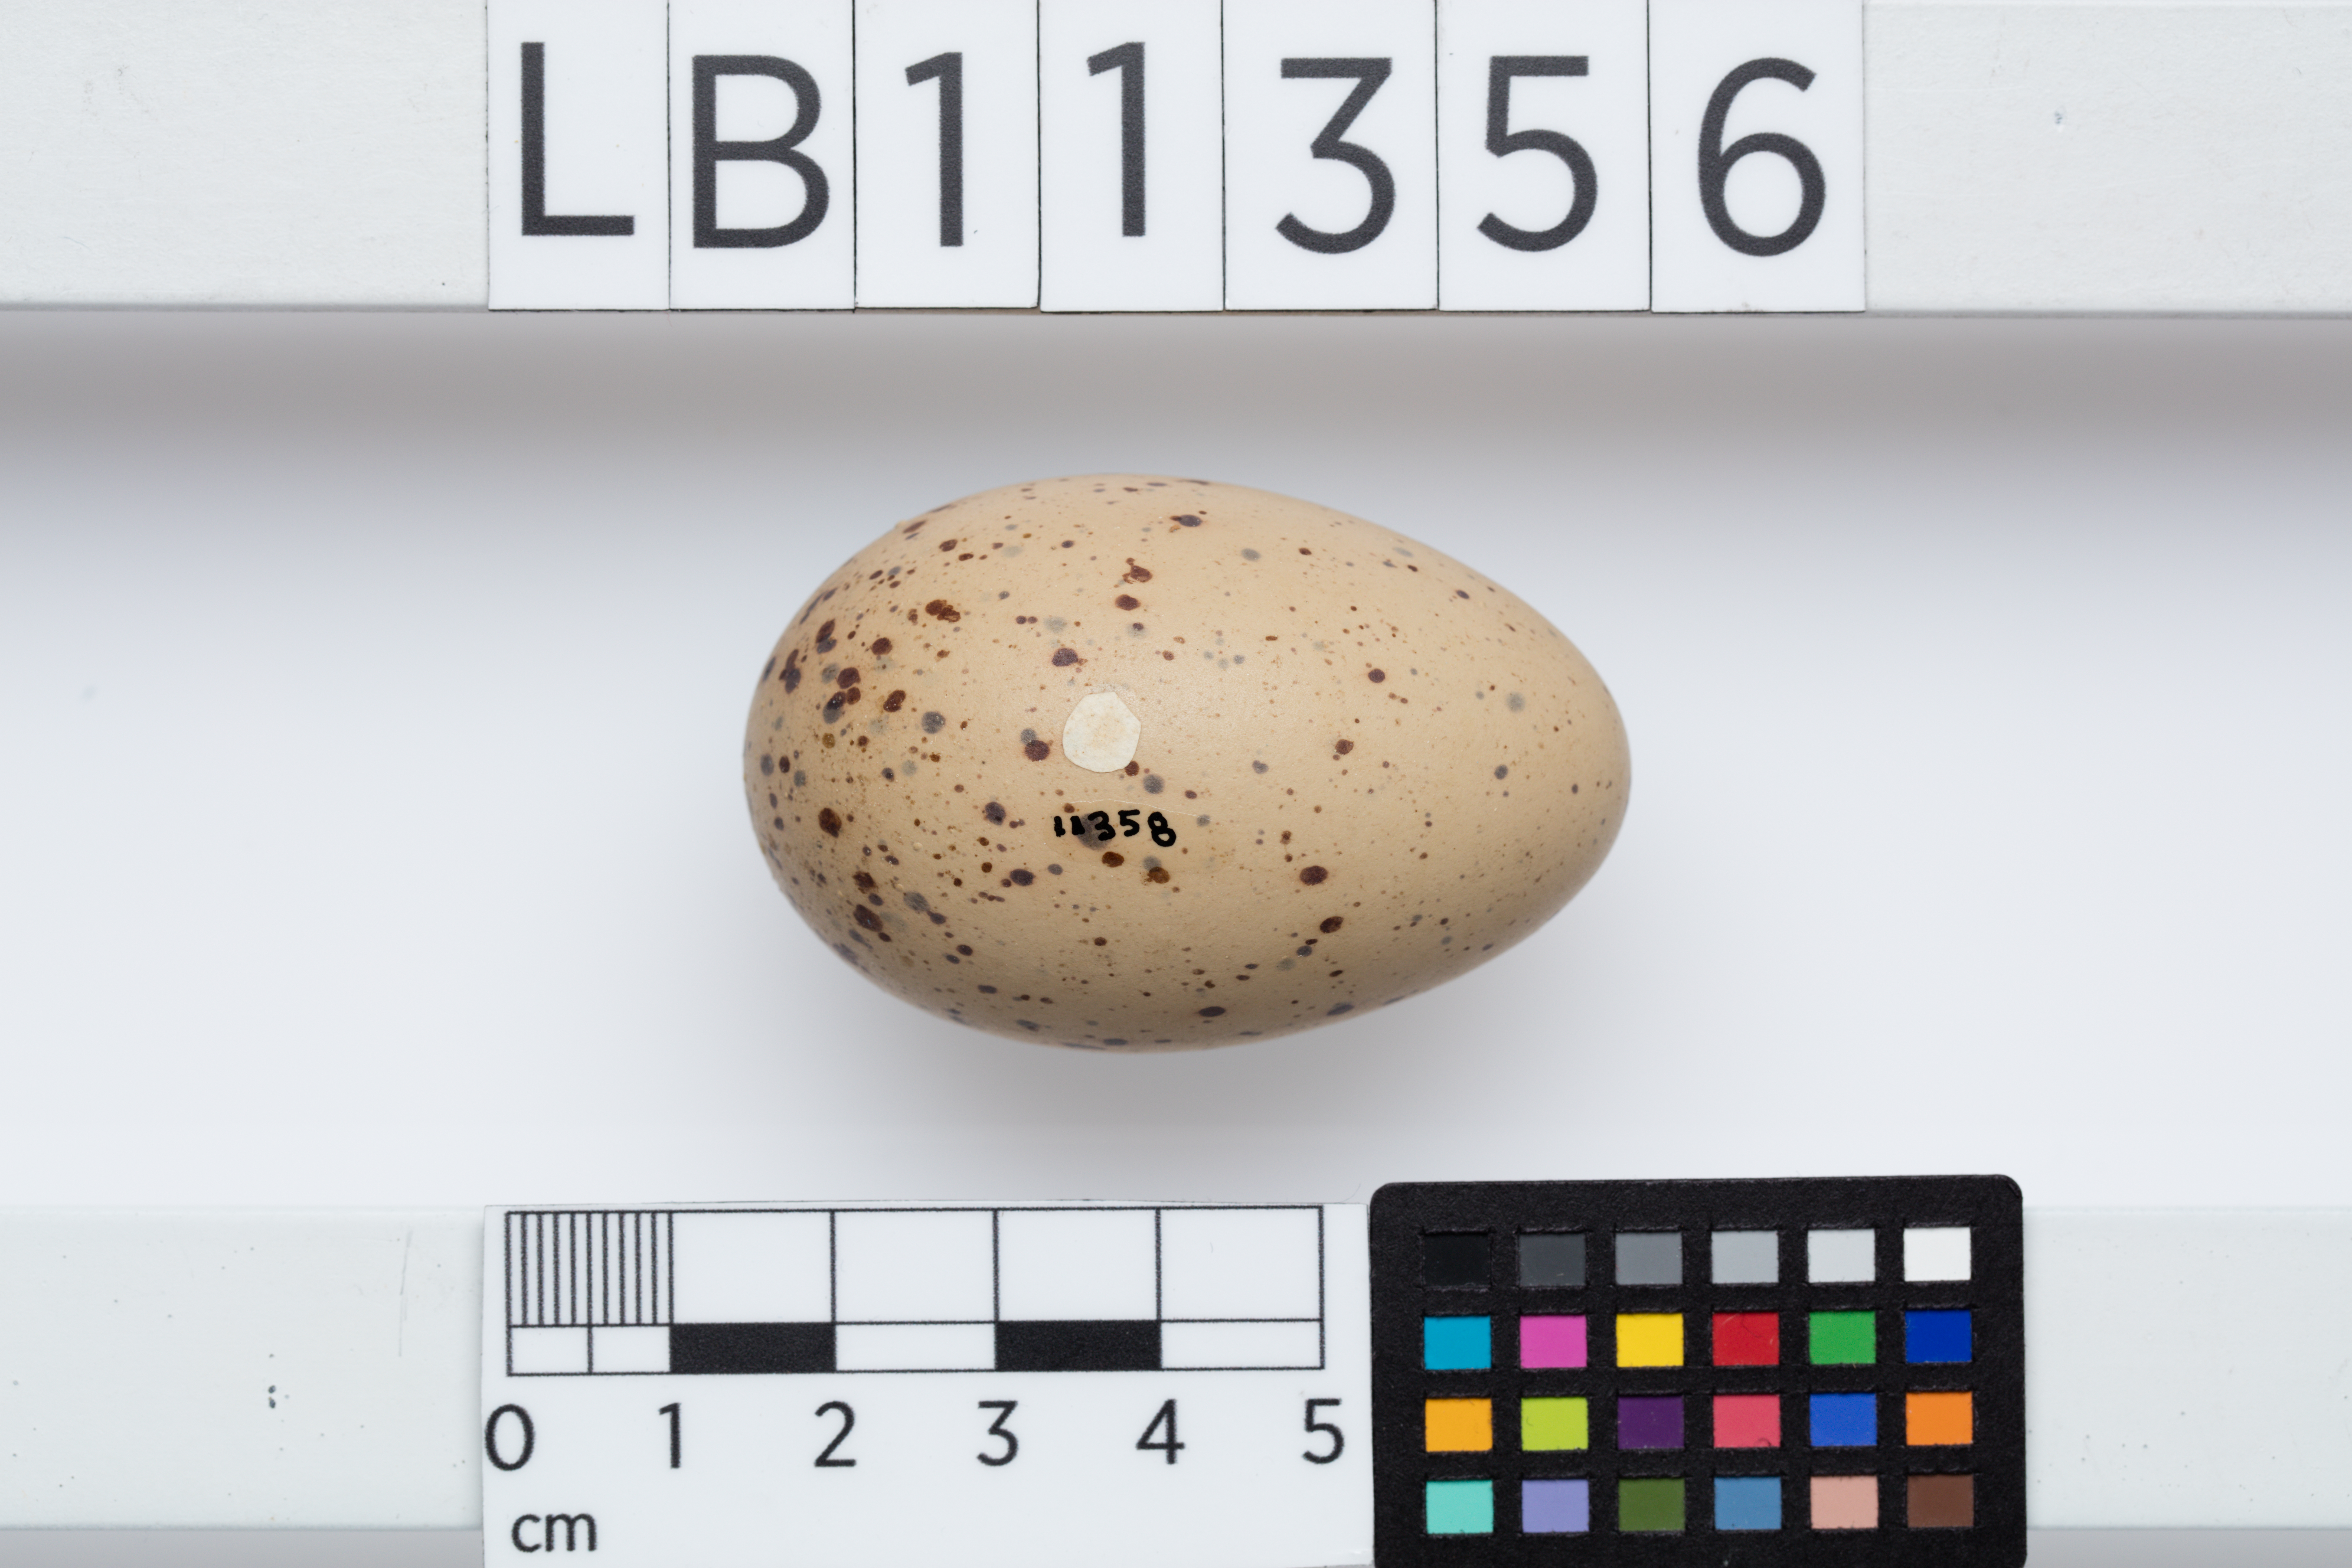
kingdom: Animalia
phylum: Chordata
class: Aves
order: Gruiformes
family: Rallidae
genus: Porphyrio
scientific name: Porphyrio melanotus
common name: Australasian swamphen
